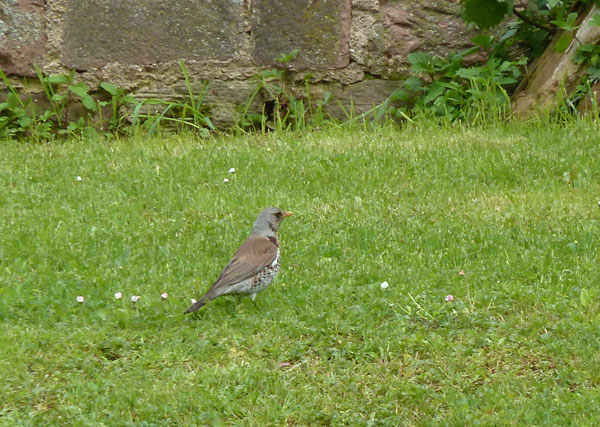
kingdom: Animalia
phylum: Chordata
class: Aves
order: Passeriformes
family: Turdidae
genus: Turdus
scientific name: Turdus pilaris
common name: Fieldfare
